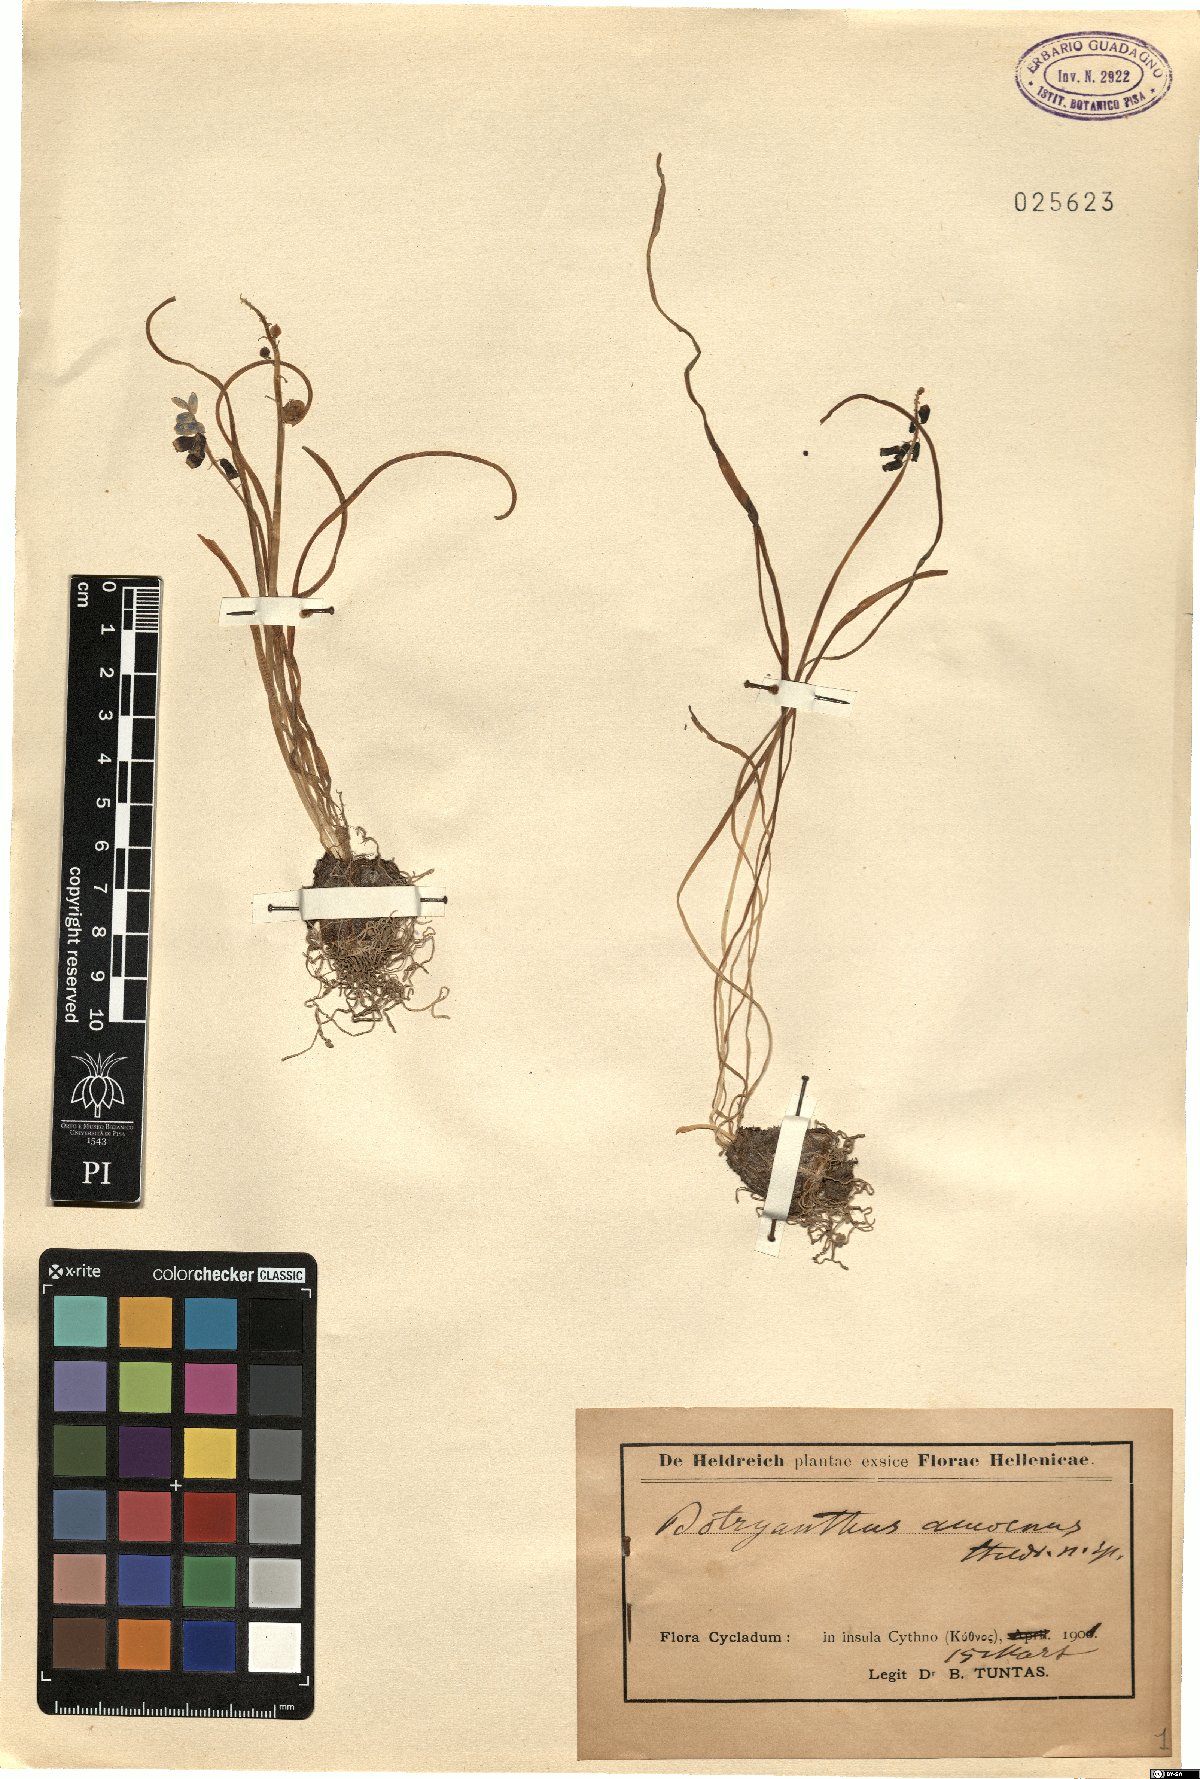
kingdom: Plantae
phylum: Tracheophyta
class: Liliopsida
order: Asparagales
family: Asparagaceae
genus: Muscari
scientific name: Muscari
